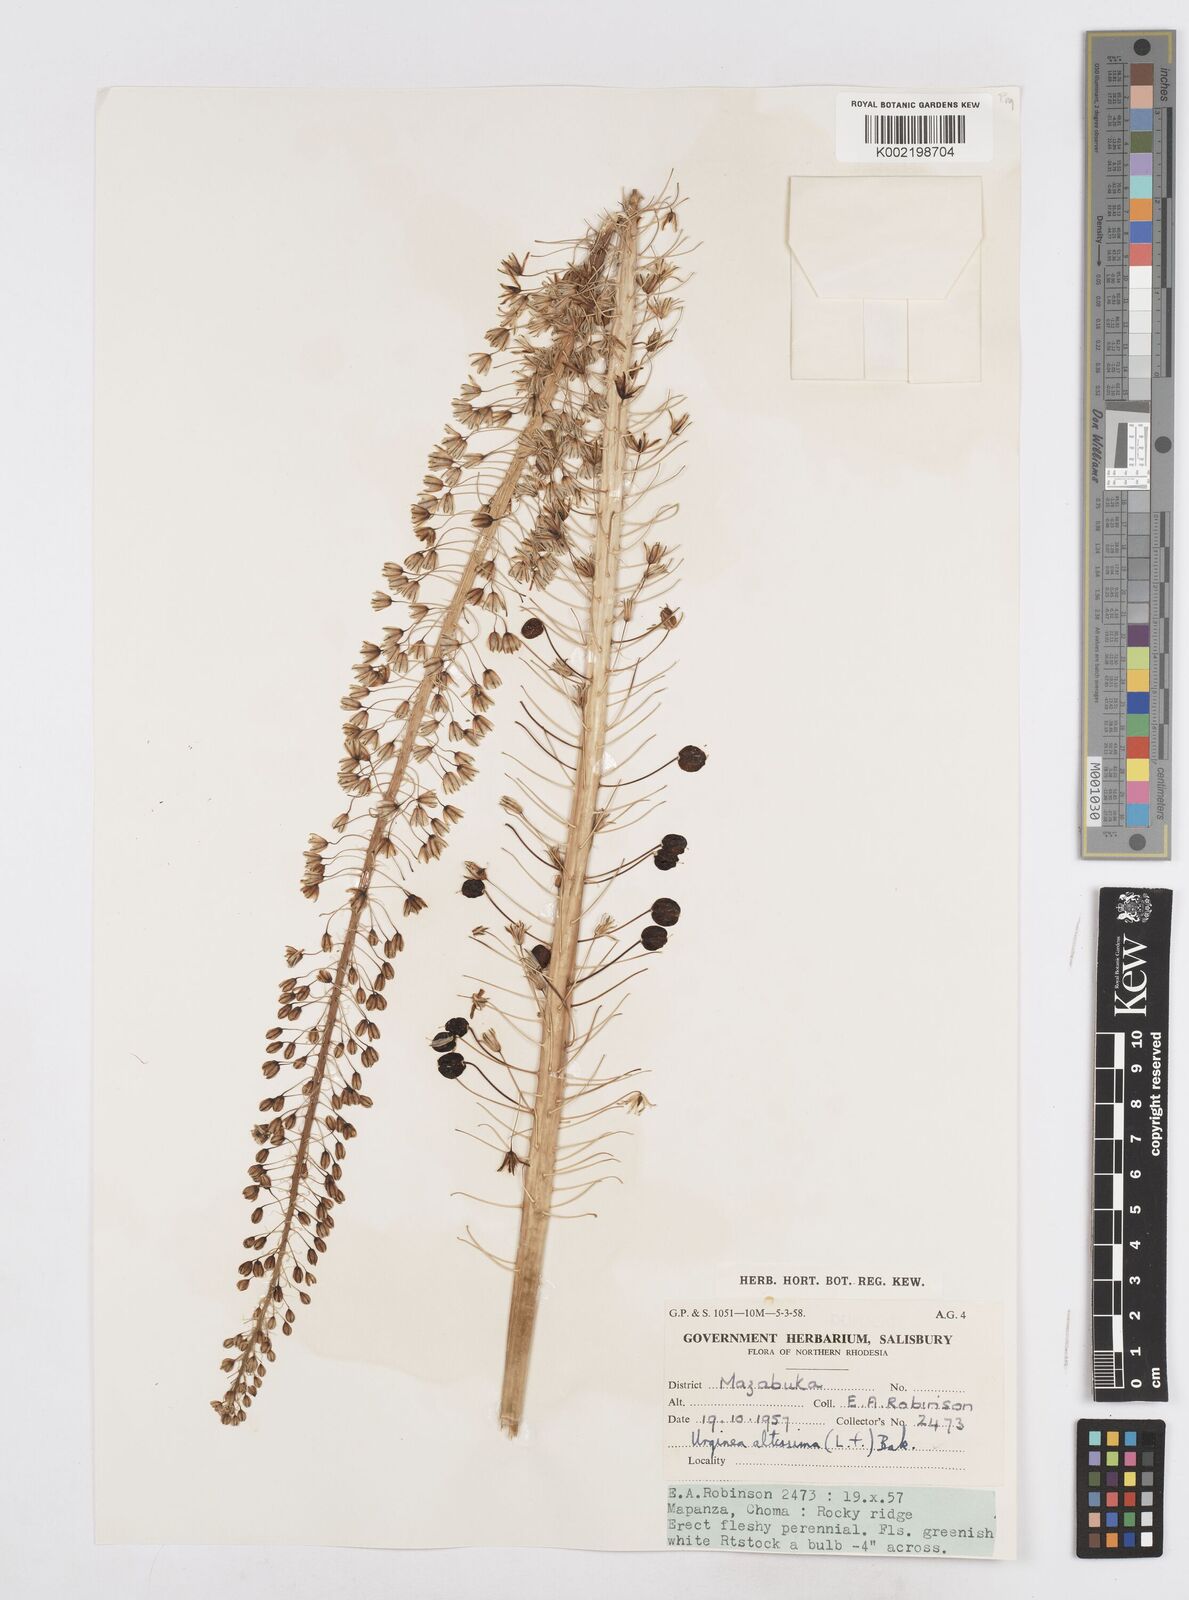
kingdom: Plantae
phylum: Tracheophyta
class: Liliopsida
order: Asparagales
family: Asparagaceae
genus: Drimia
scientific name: Drimia
